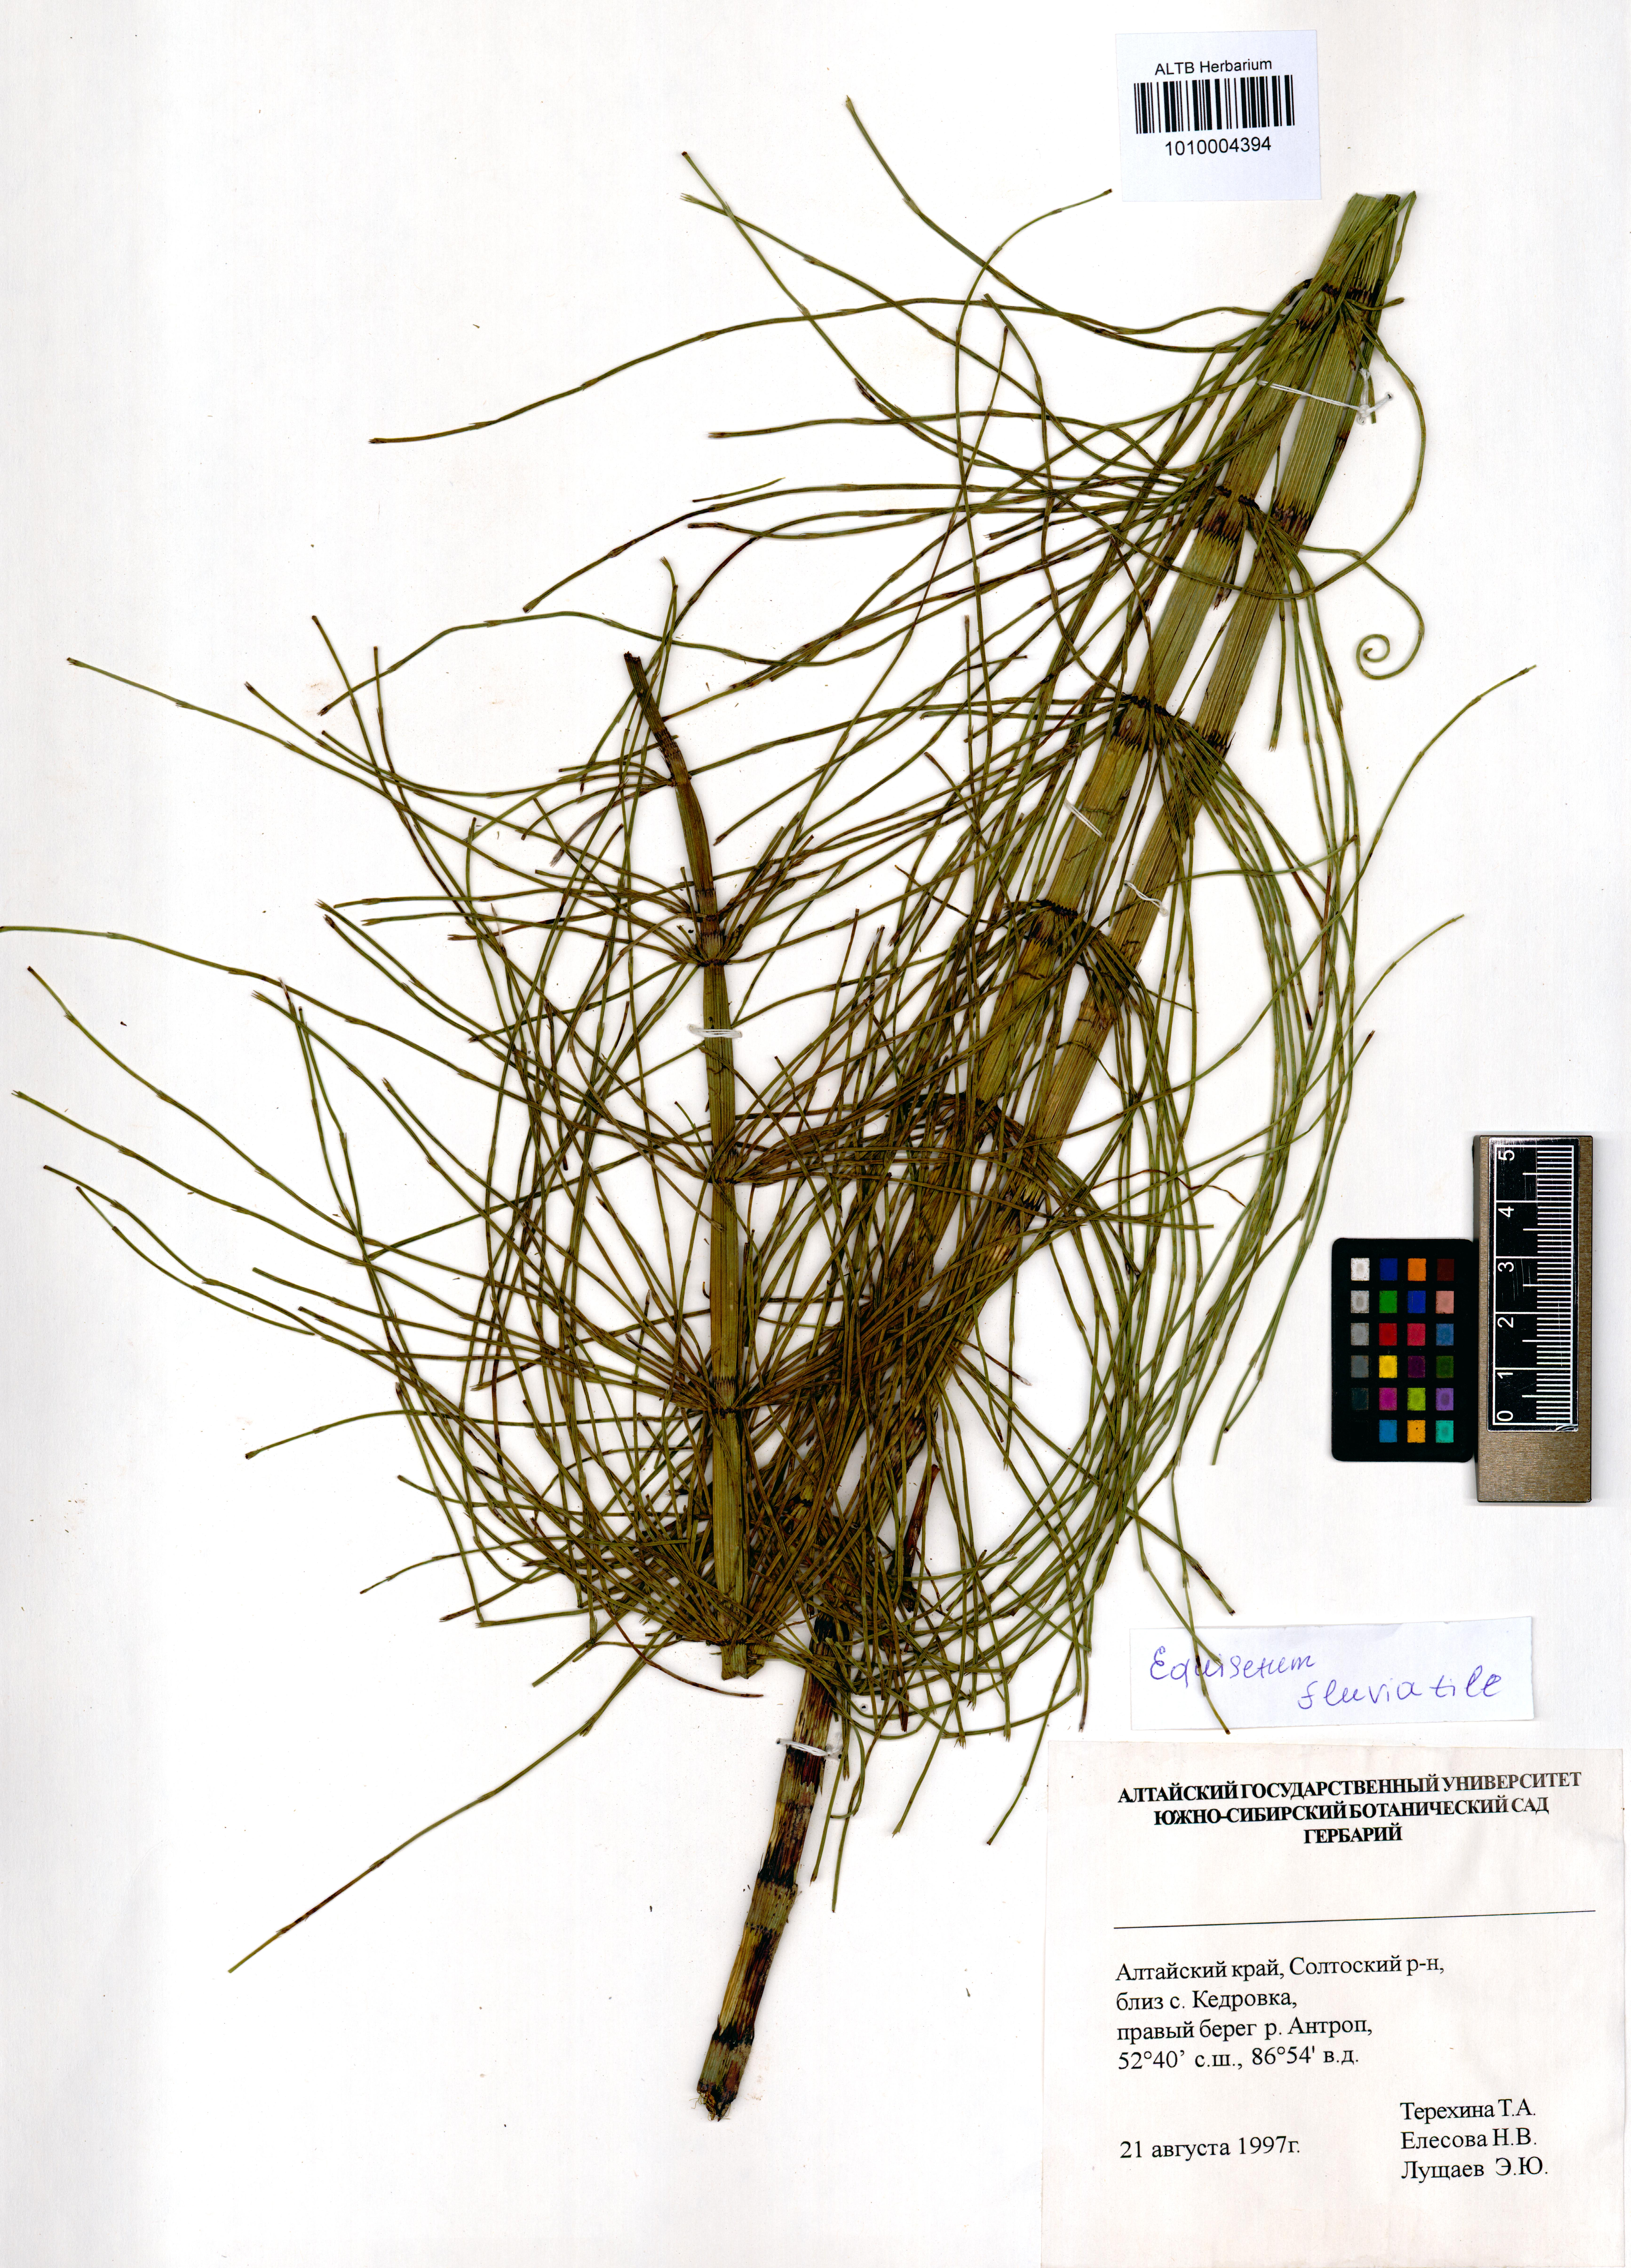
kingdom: Plantae
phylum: Tracheophyta
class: Polypodiopsida
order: Equisetales
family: Equisetaceae
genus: Equisetum
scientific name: Equisetum fluviatile
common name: Water horsetail
